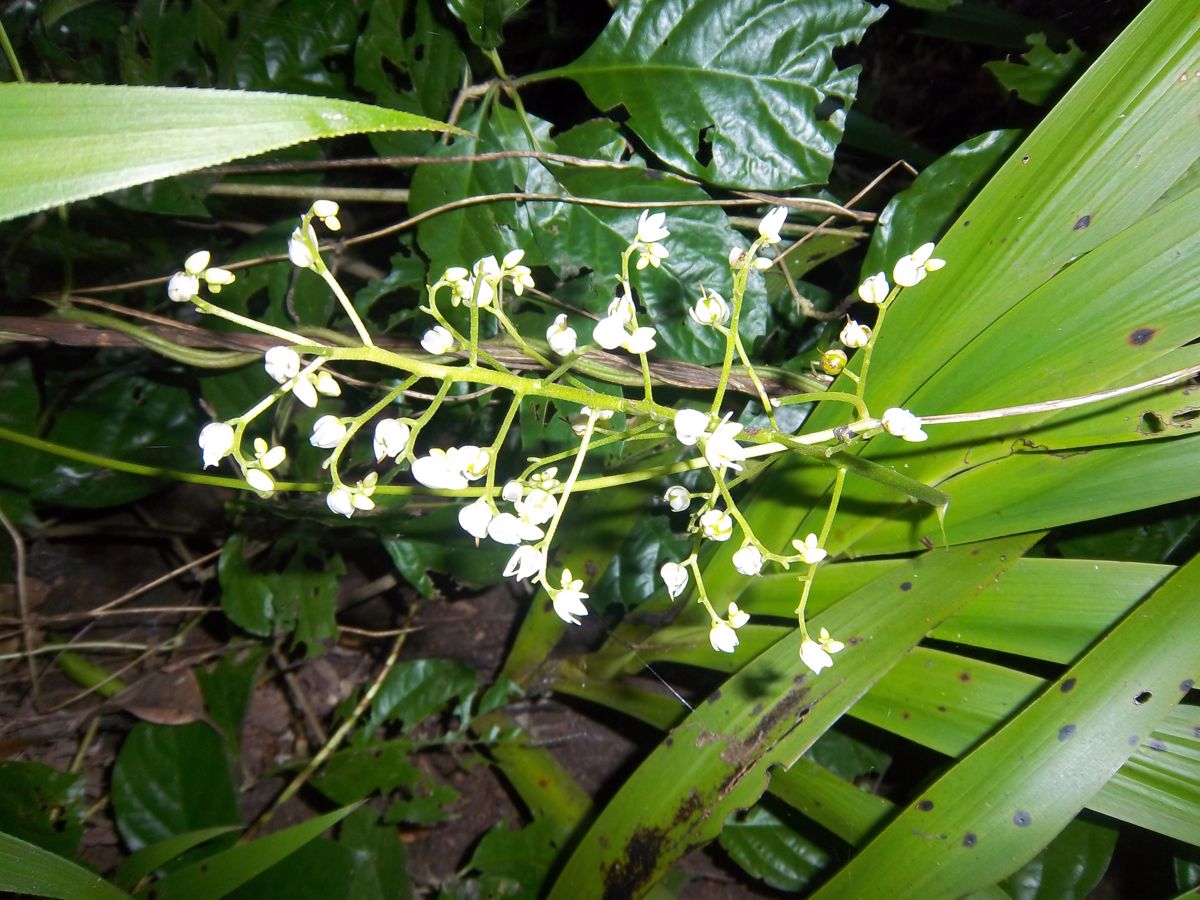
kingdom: Plantae
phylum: Tracheophyta
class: Liliopsida
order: Commelinales
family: Haemodoraceae
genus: Xiphidium
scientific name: Xiphidium caeruleum
